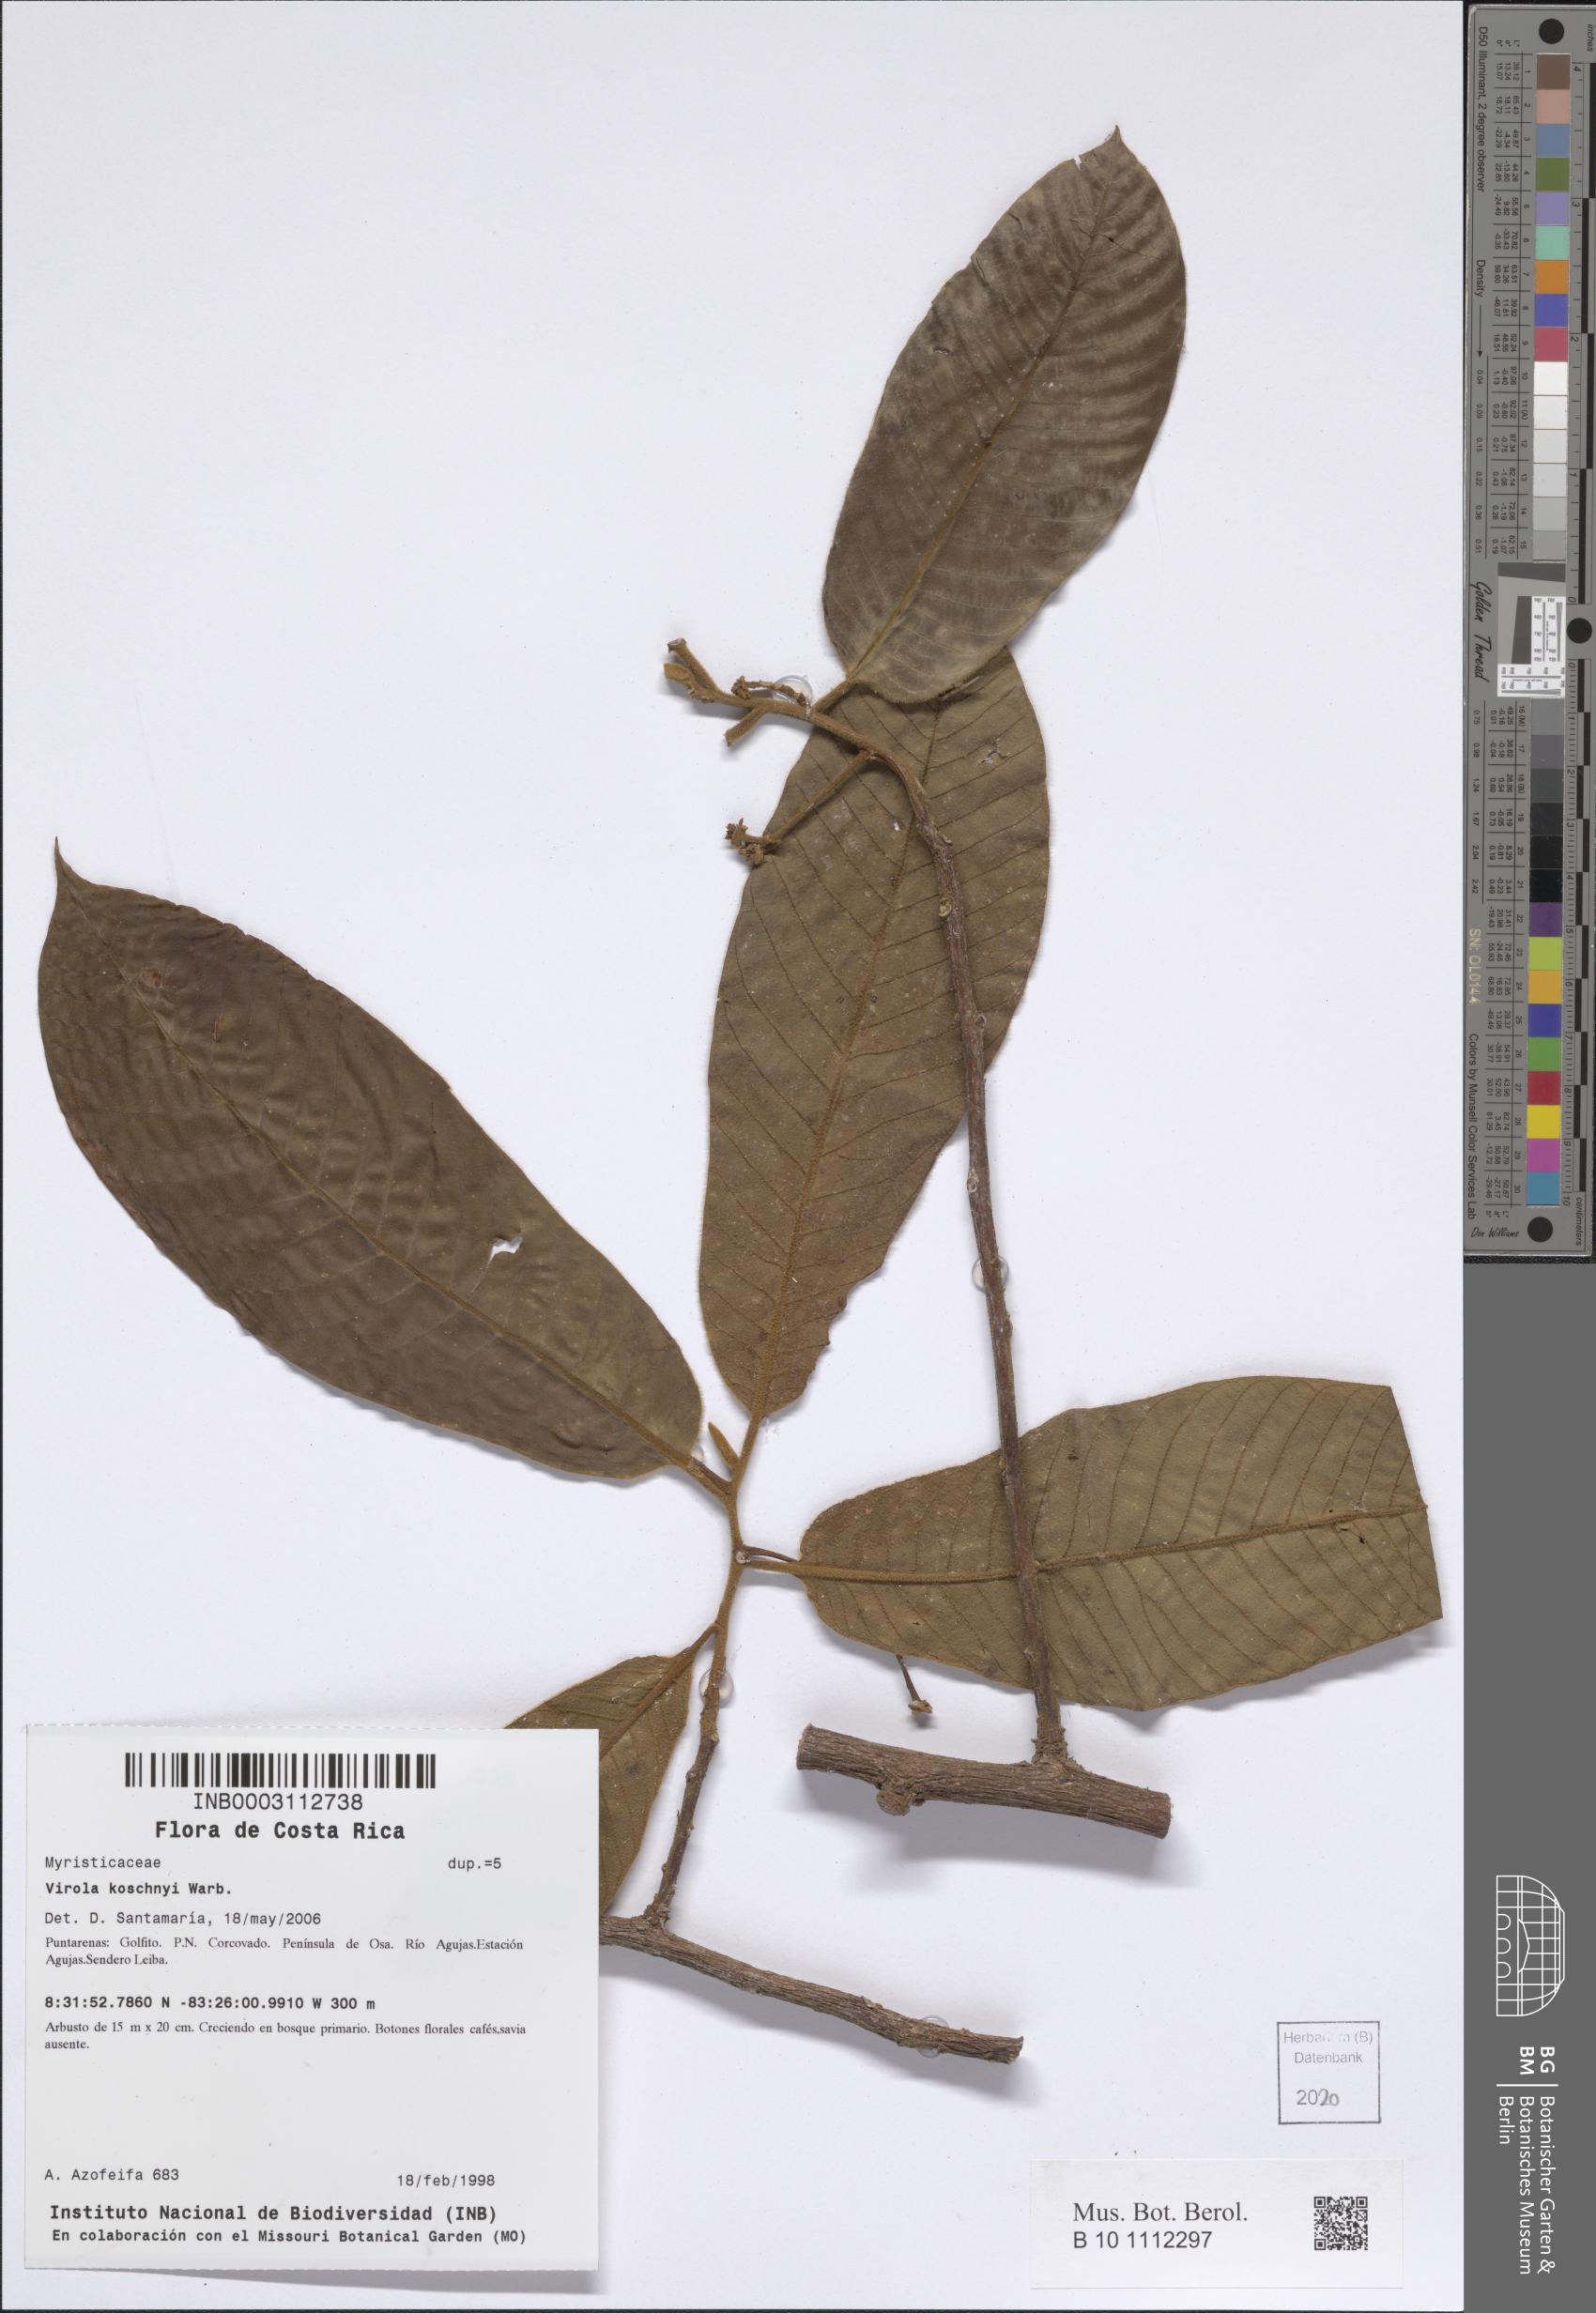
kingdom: Plantae
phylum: Tracheophyta
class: Magnoliopsida
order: Magnoliales
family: Myristicaceae
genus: Virola
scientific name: Virola chrysocarpa
